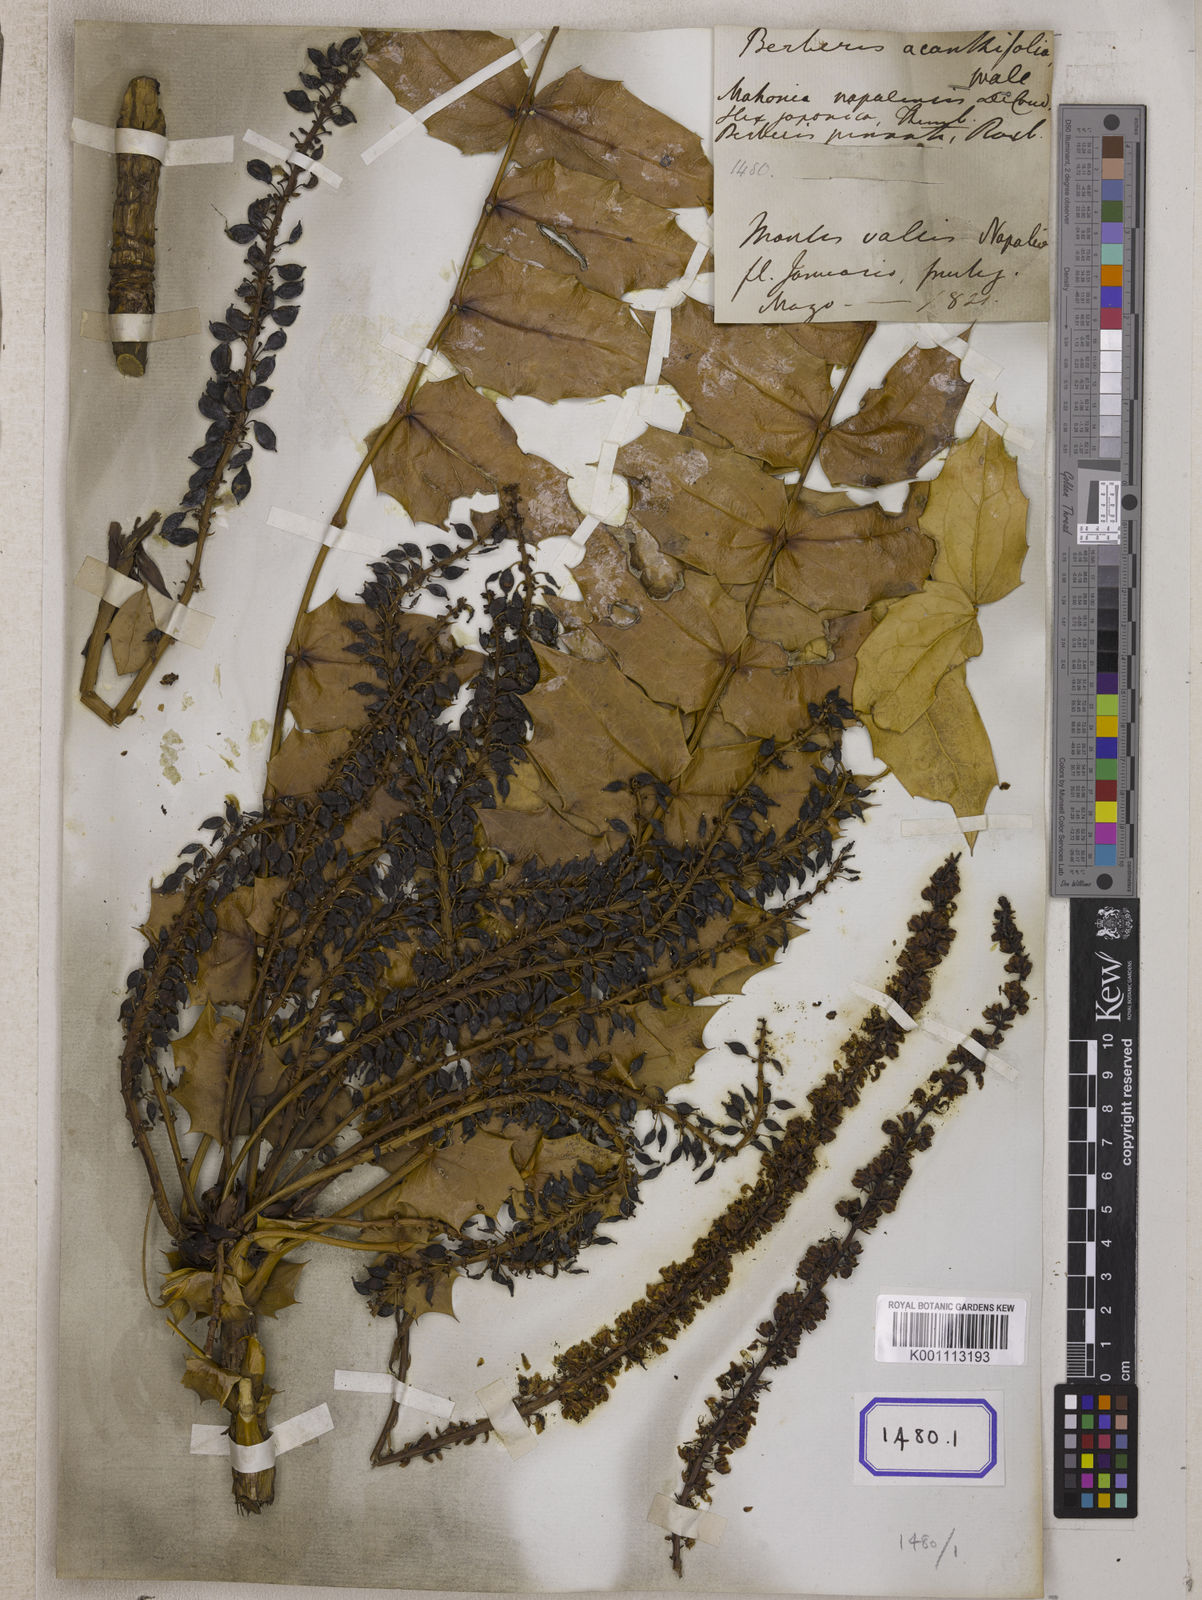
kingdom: Plantae
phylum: Tracheophyta
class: Magnoliopsida
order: Ranunculales
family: Berberidaceae
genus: Berberis
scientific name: Berberis
